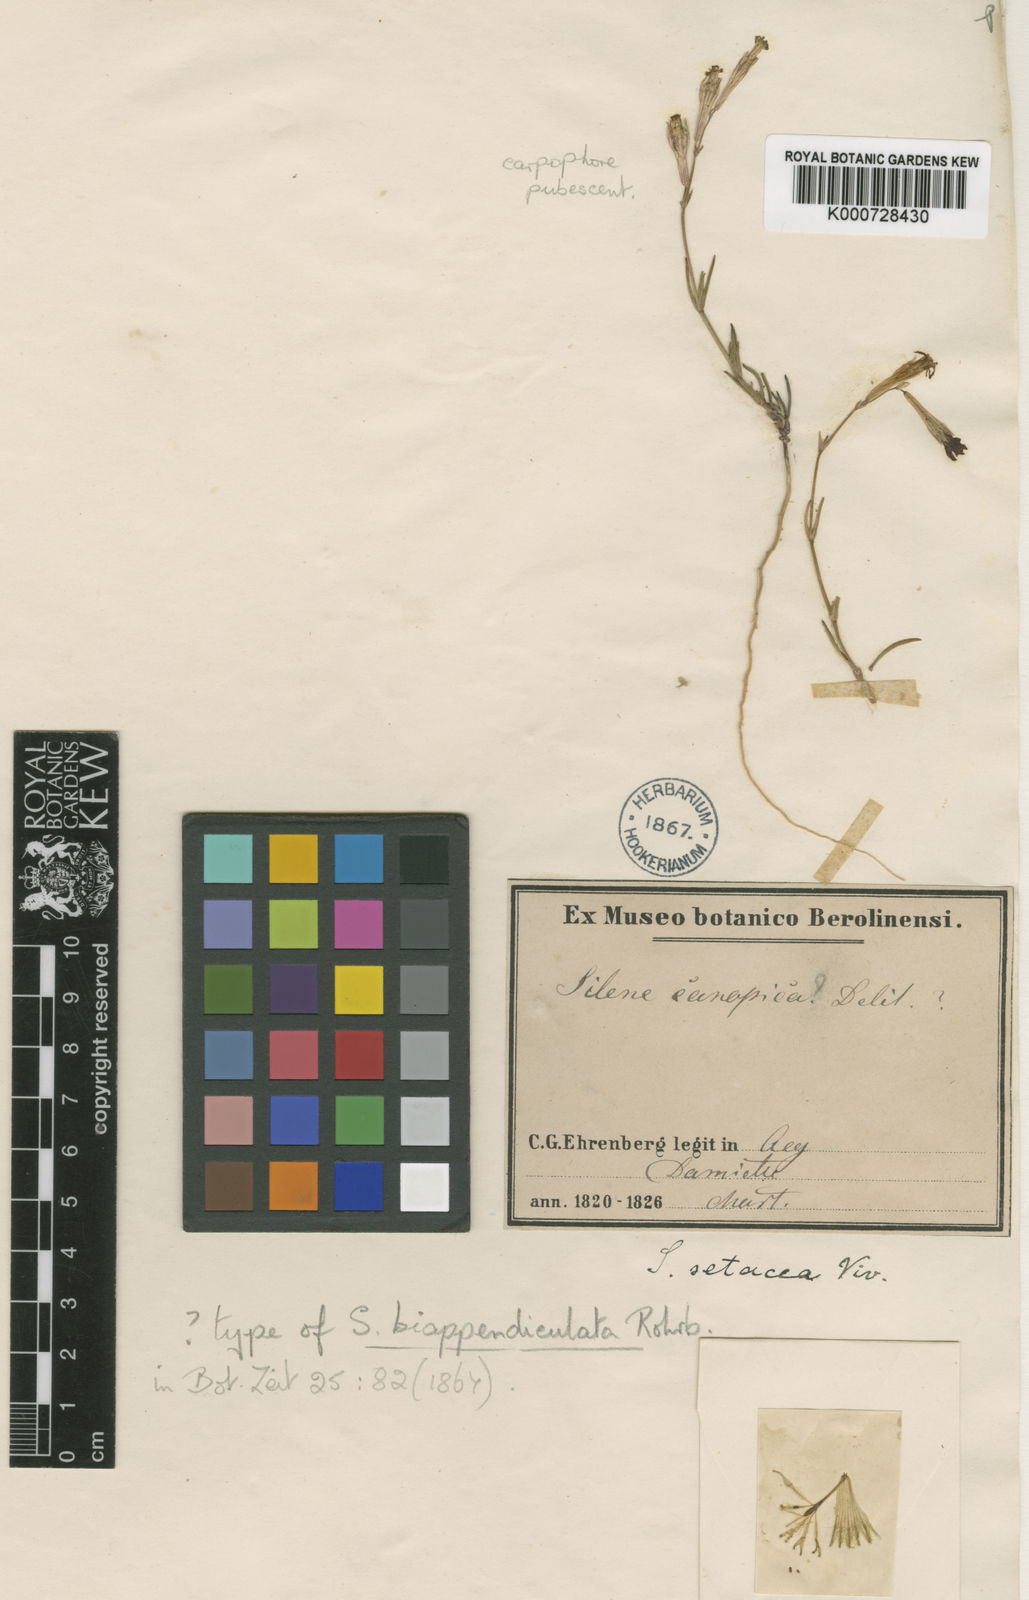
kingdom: Plantae
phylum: Tracheophyta
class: Magnoliopsida
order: Caryophyllales
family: Caryophyllaceae
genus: Silene
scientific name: Silene biappendiculata
